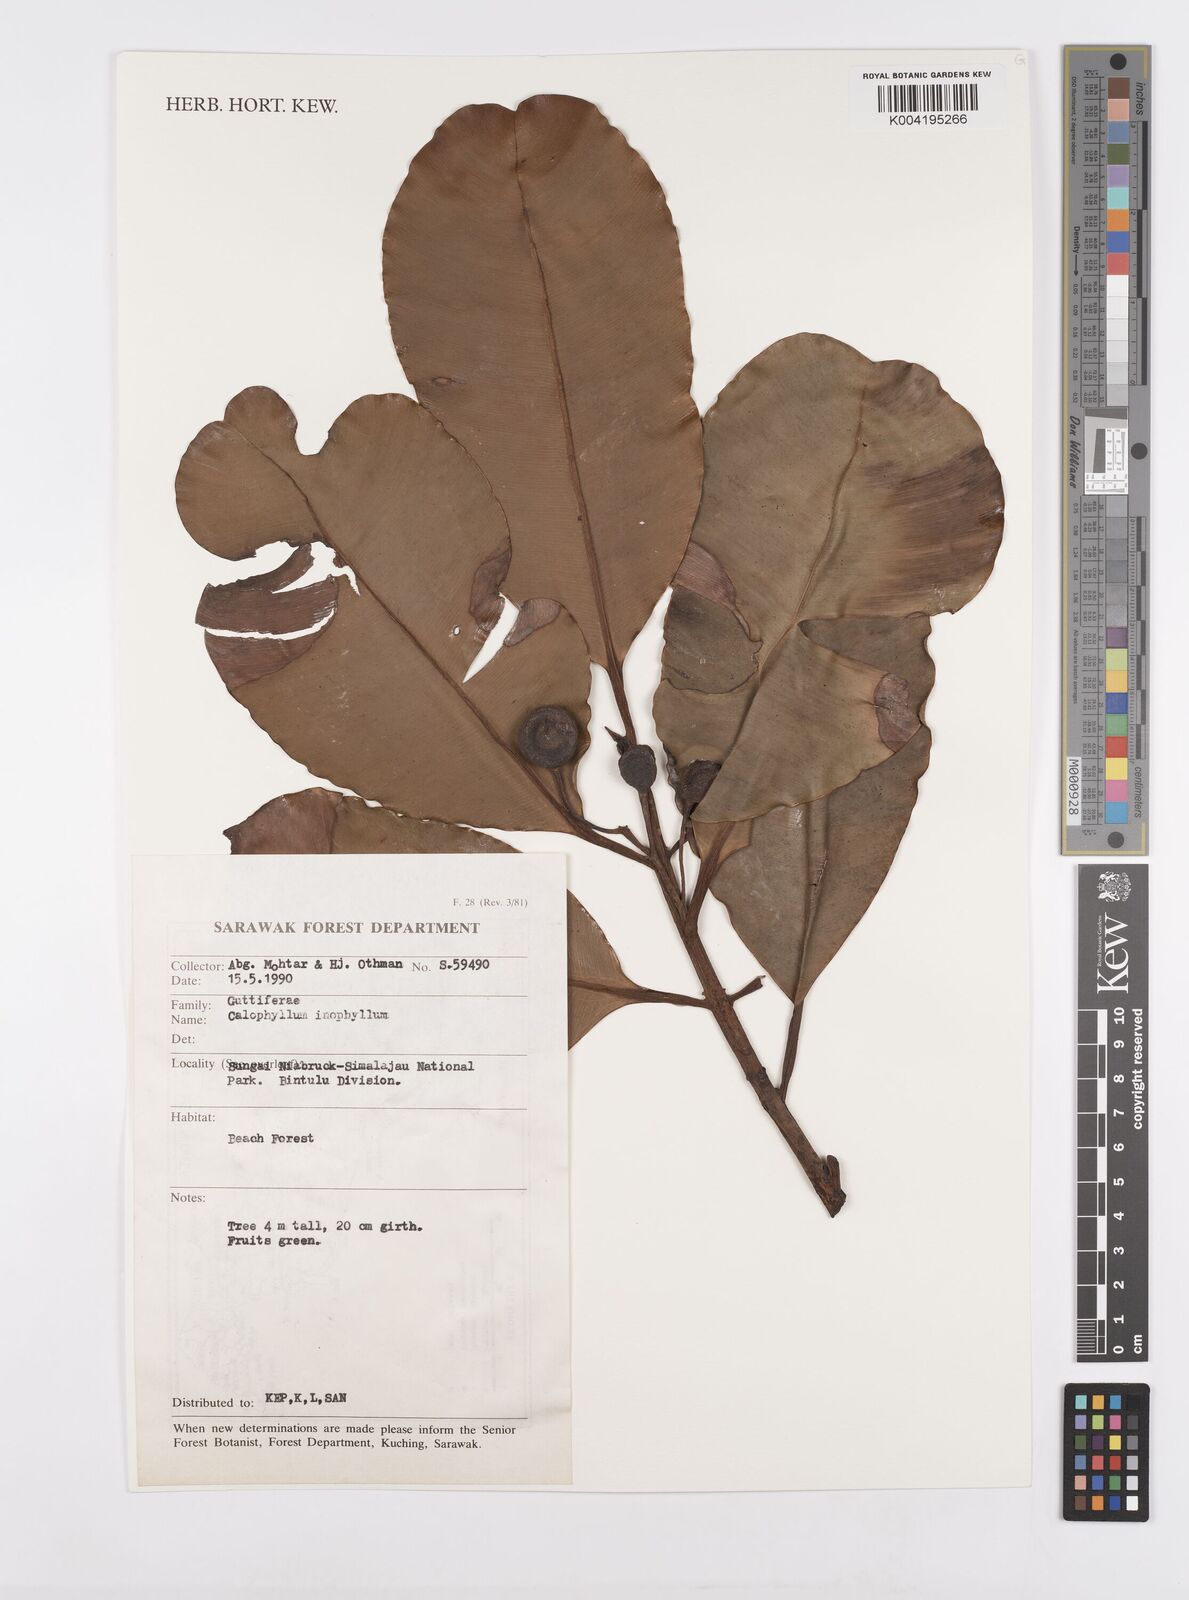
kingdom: Plantae
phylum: Tracheophyta
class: Magnoliopsida
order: Malpighiales
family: Calophyllaceae
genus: Calophyllum
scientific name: Calophyllum inophyllum
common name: Alexandrian laurel
